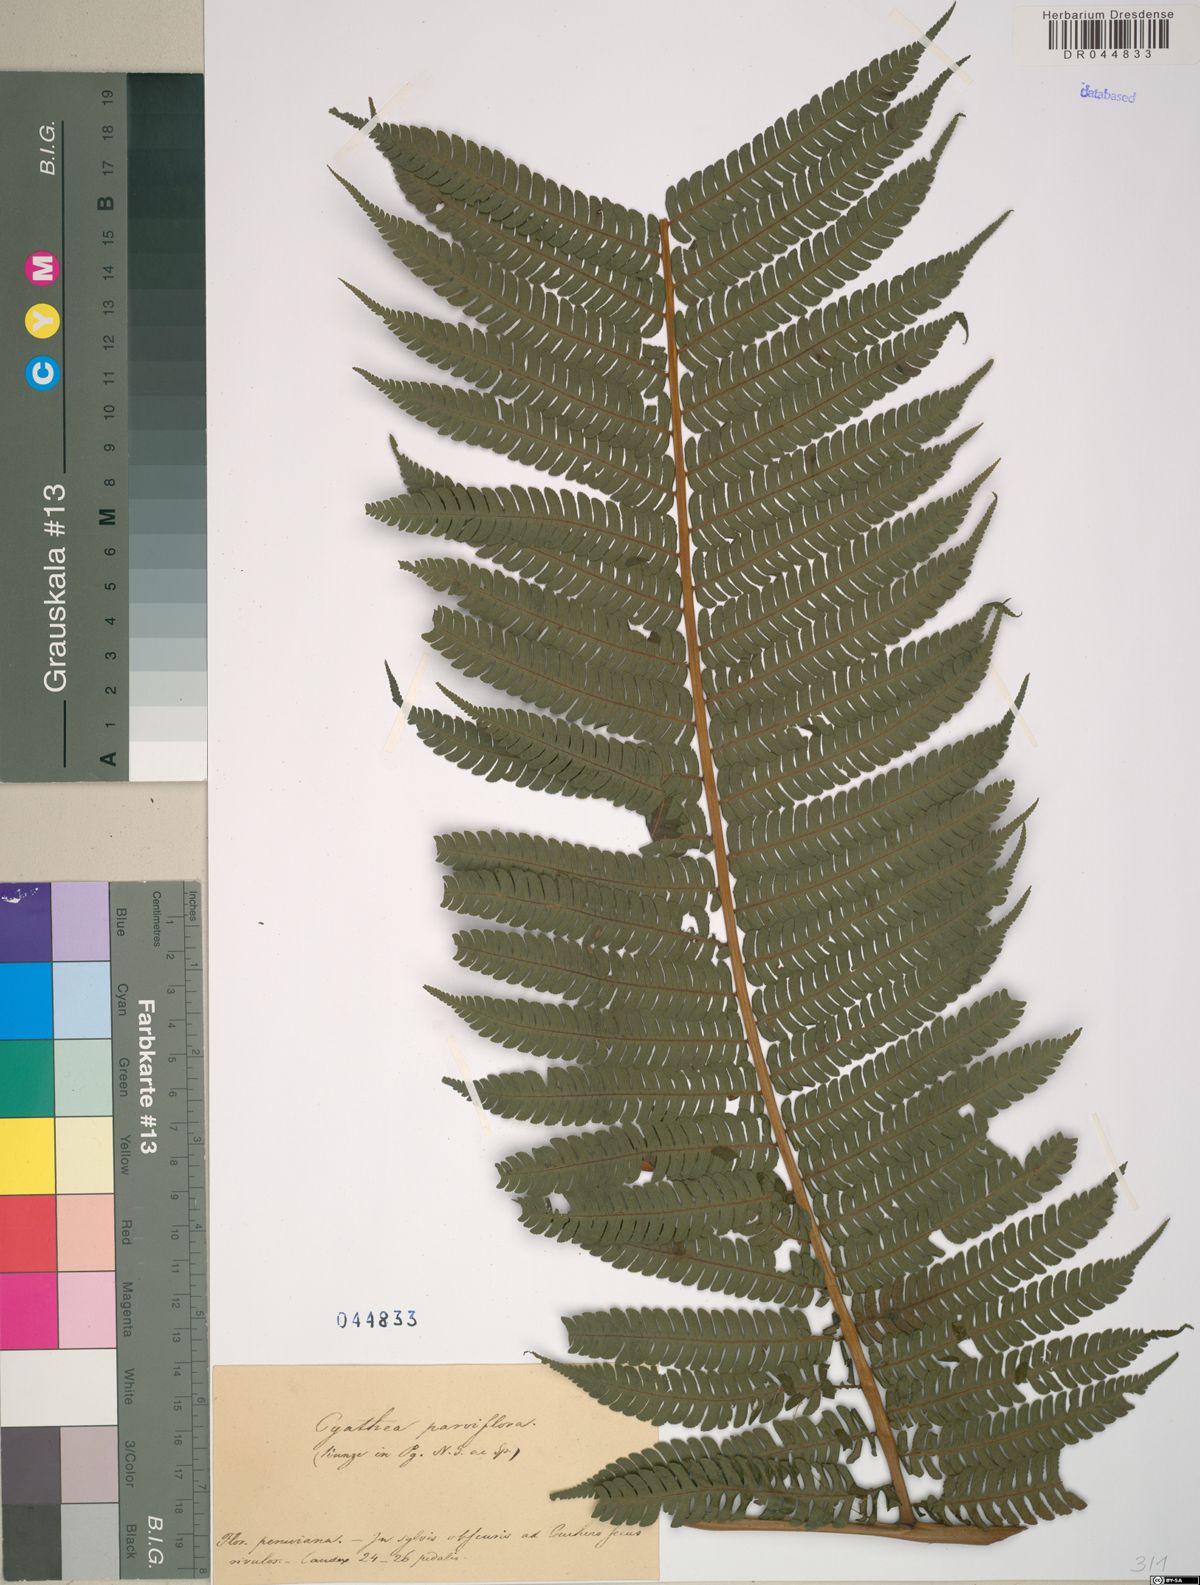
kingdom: Plantae
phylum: Tracheophyta
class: Polypodiopsida
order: Cyatheales
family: Cyatheaceae
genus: Cyathea
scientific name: Cyathea delgadii
